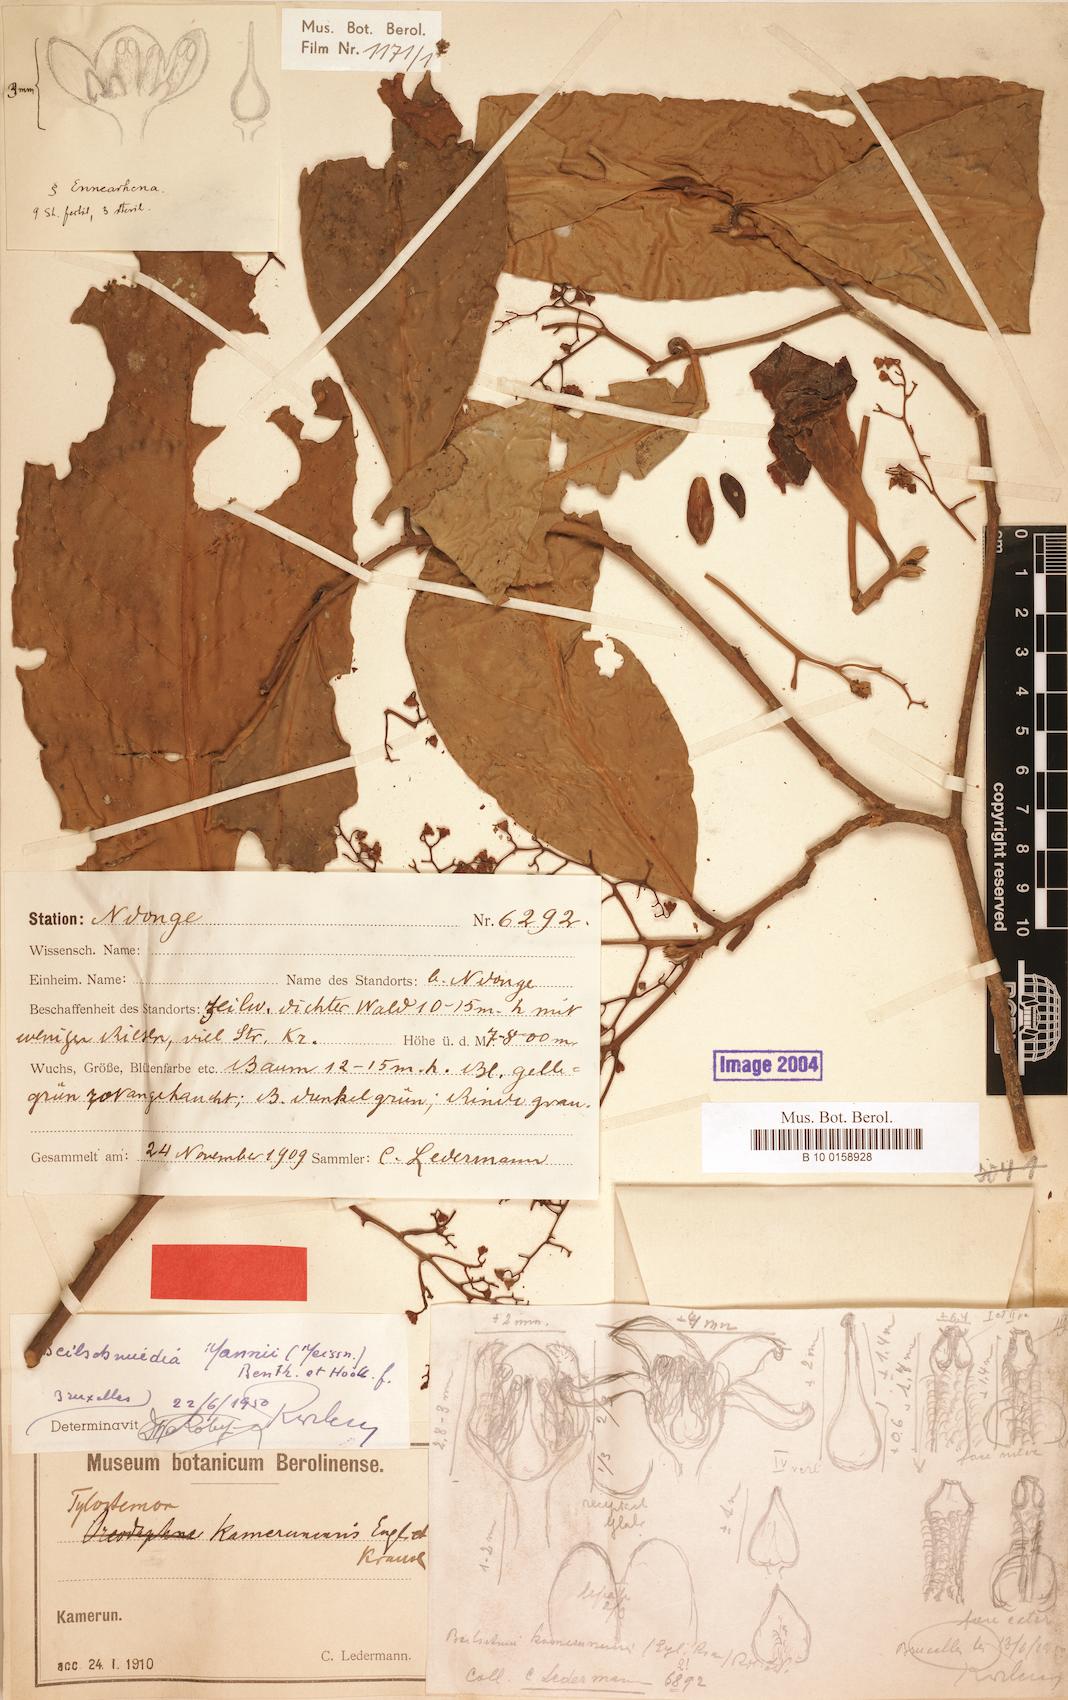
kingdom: Plantae
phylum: Tracheophyta
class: Magnoliopsida
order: Laurales
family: Lauraceae
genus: Beilschmiedia
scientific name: Beilschmiedia mannii
